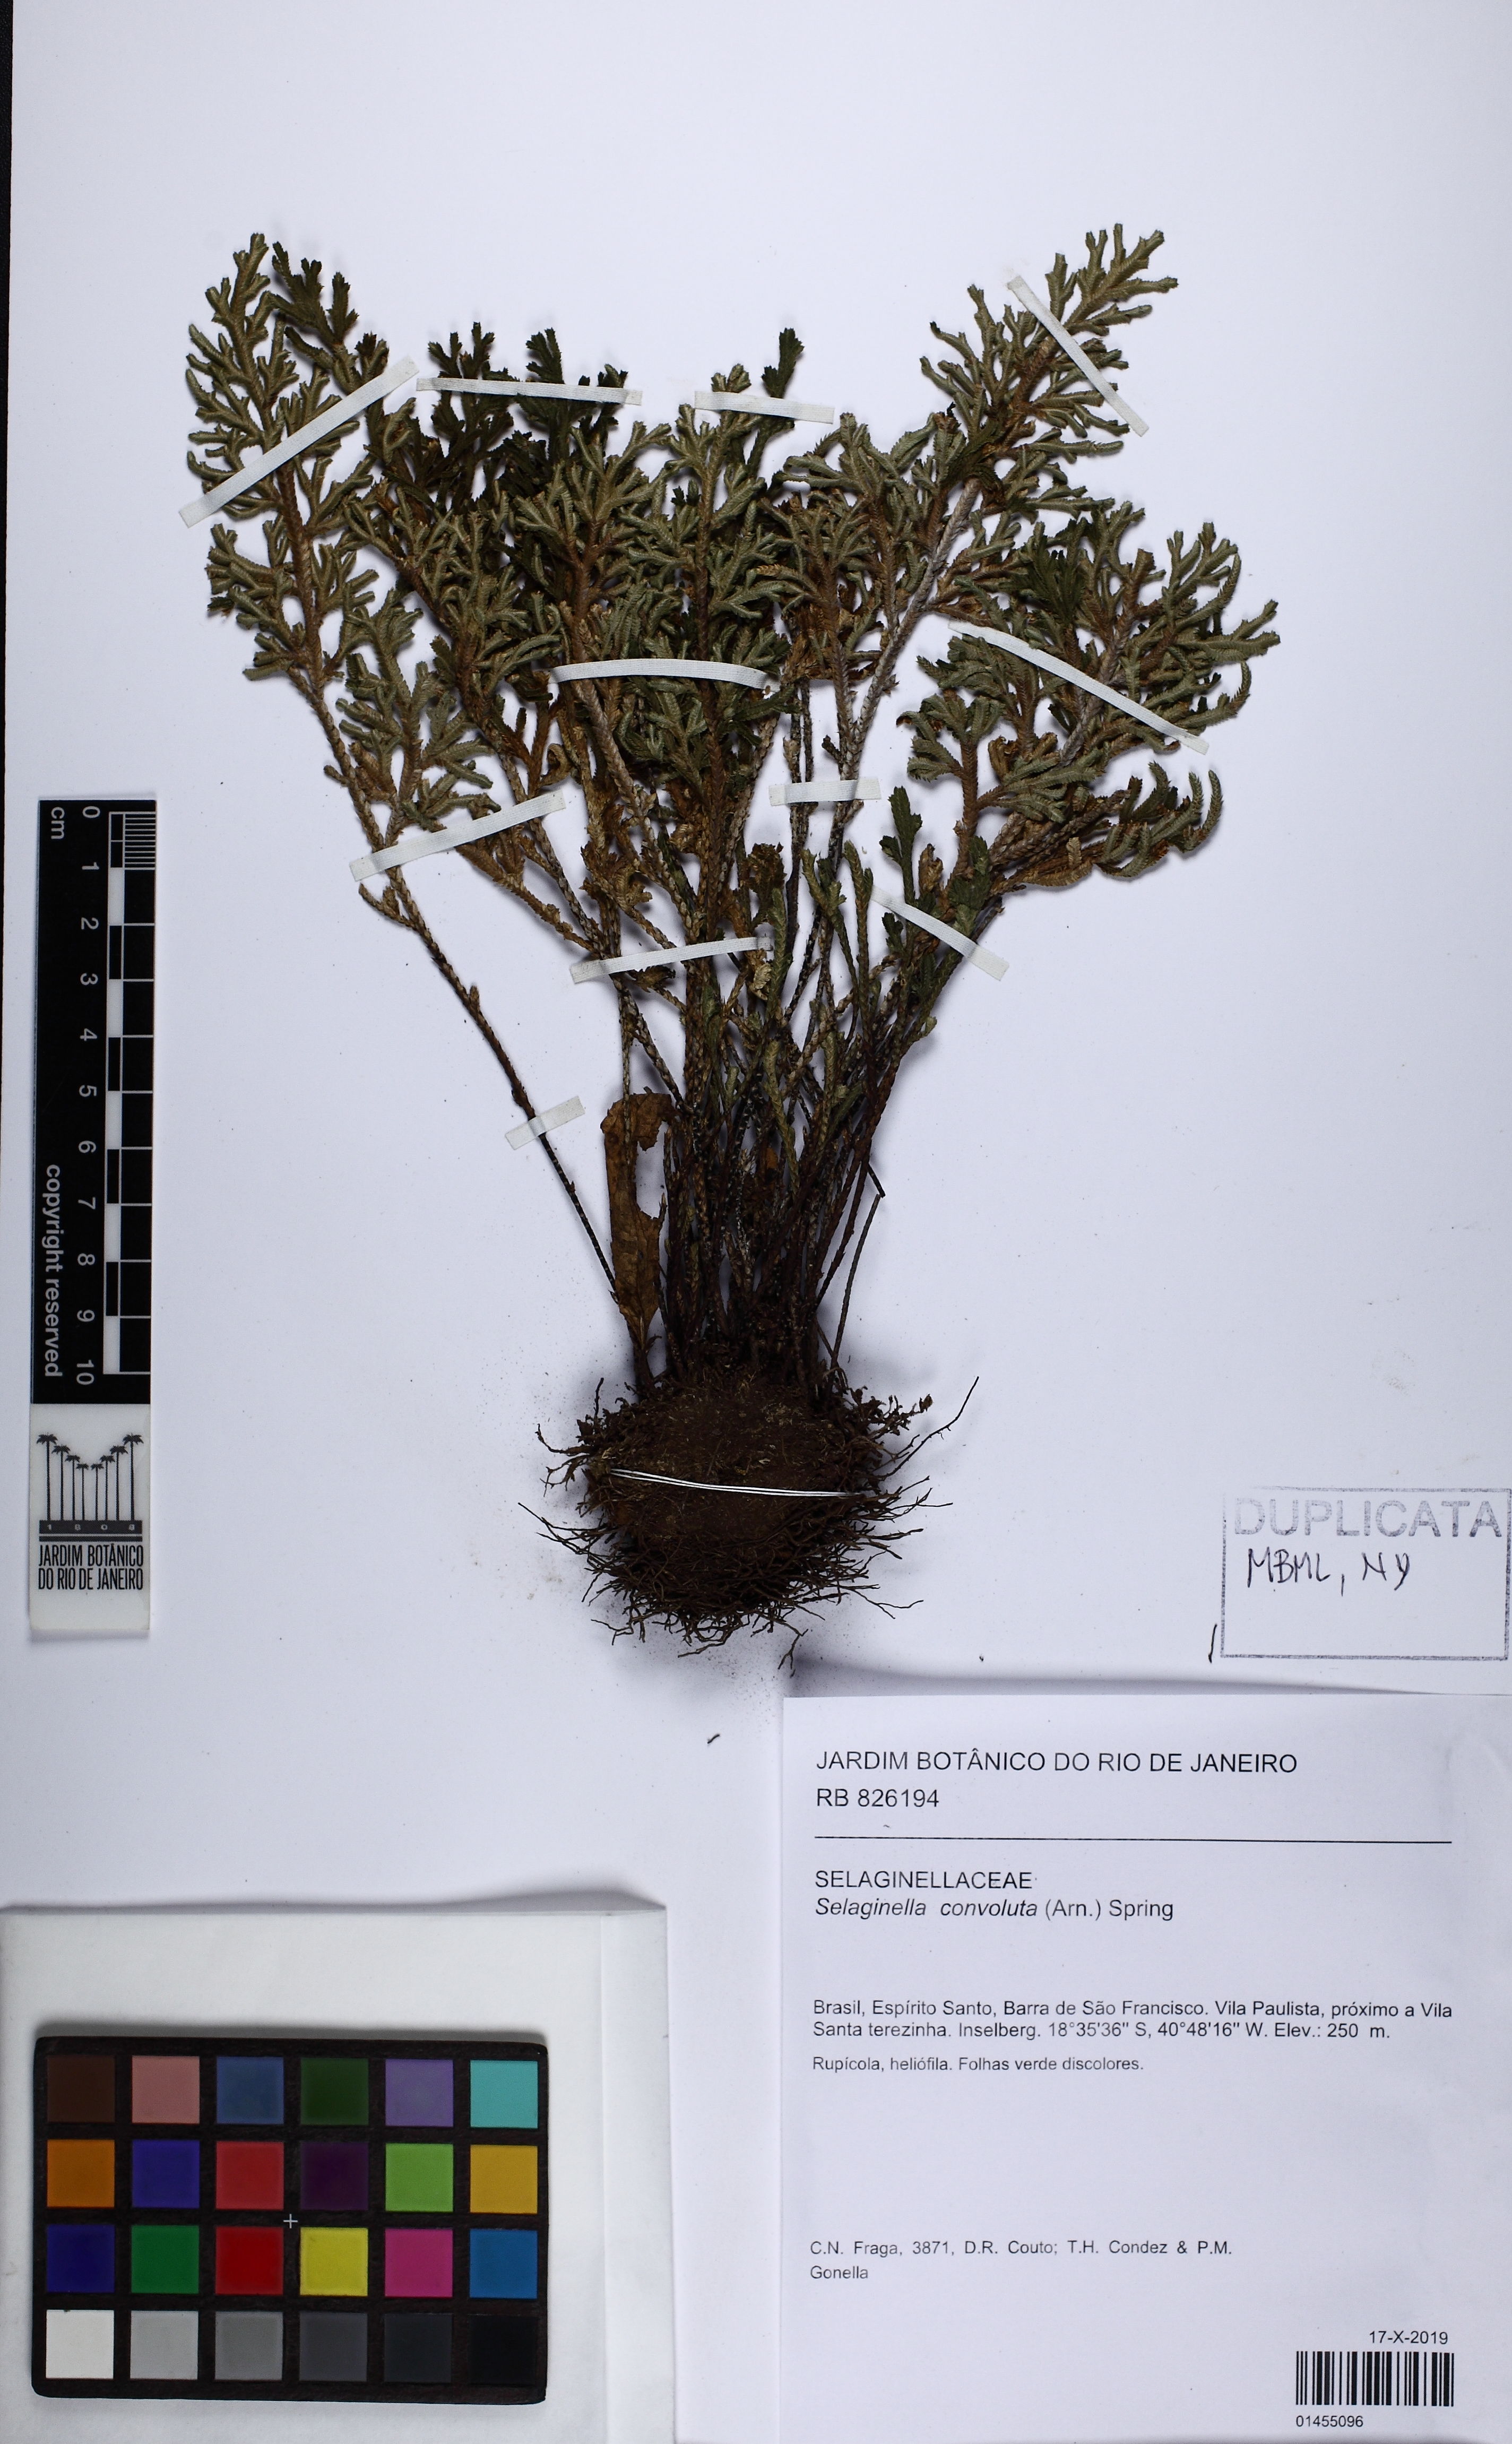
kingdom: Plantae
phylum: Tracheophyta
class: Lycopodiopsida
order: Selaginellales
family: Selaginellaceae
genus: Selaginella
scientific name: Selaginella convoluta
